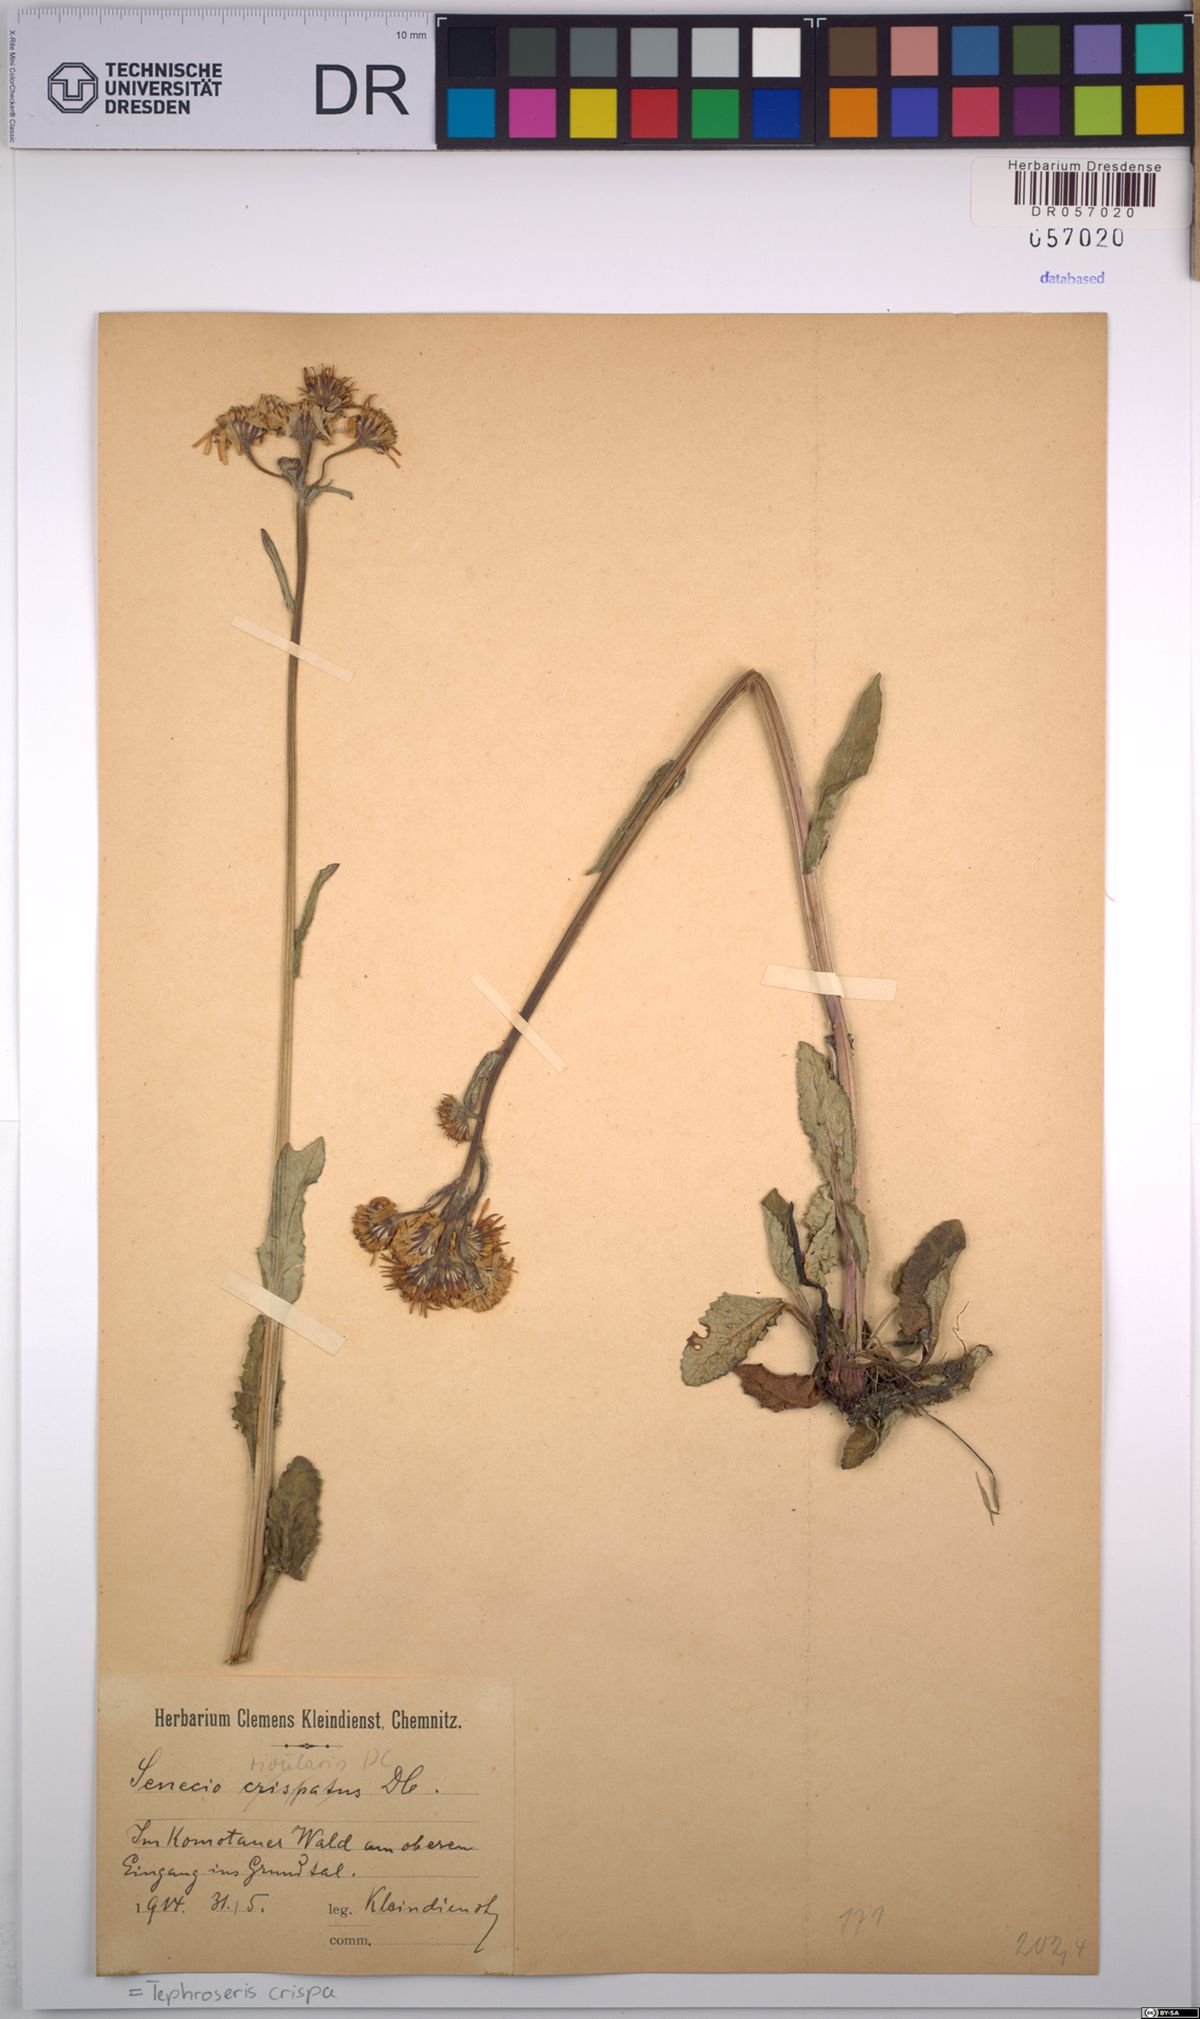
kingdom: Plantae
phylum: Tracheophyta
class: Magnoliopsida
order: Asterales
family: Asteraceae
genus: Tephroseris
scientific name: Tephroseris crispa
